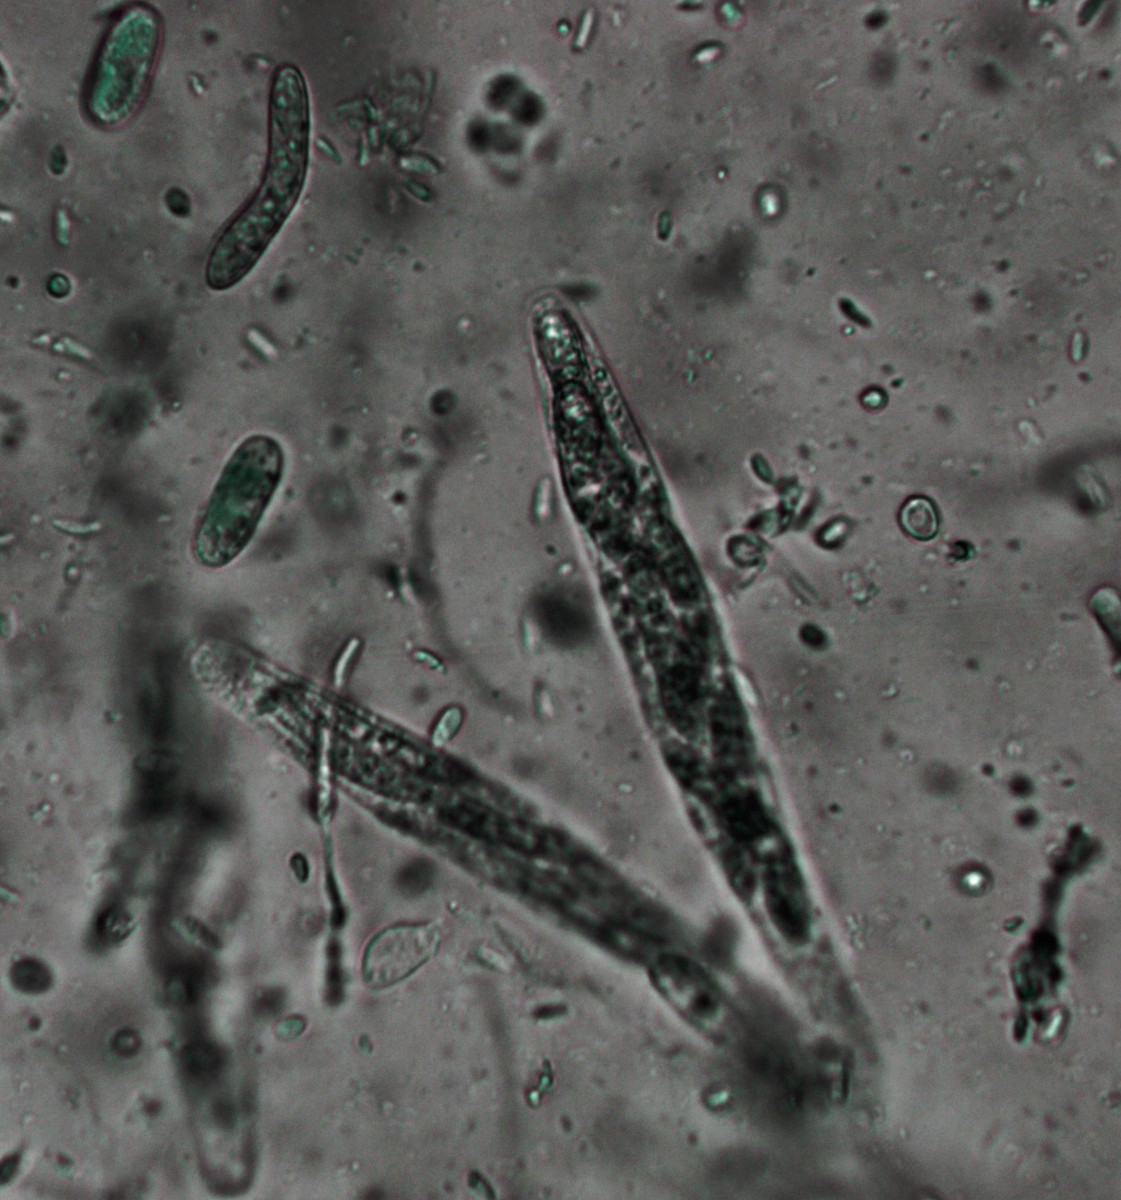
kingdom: Fungi
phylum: Ascomycota
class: Sordariomycetes
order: Sordariales
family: Helminthosphaeriaceae
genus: Echinosphaeria
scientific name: Echinosphaeria strigosa
